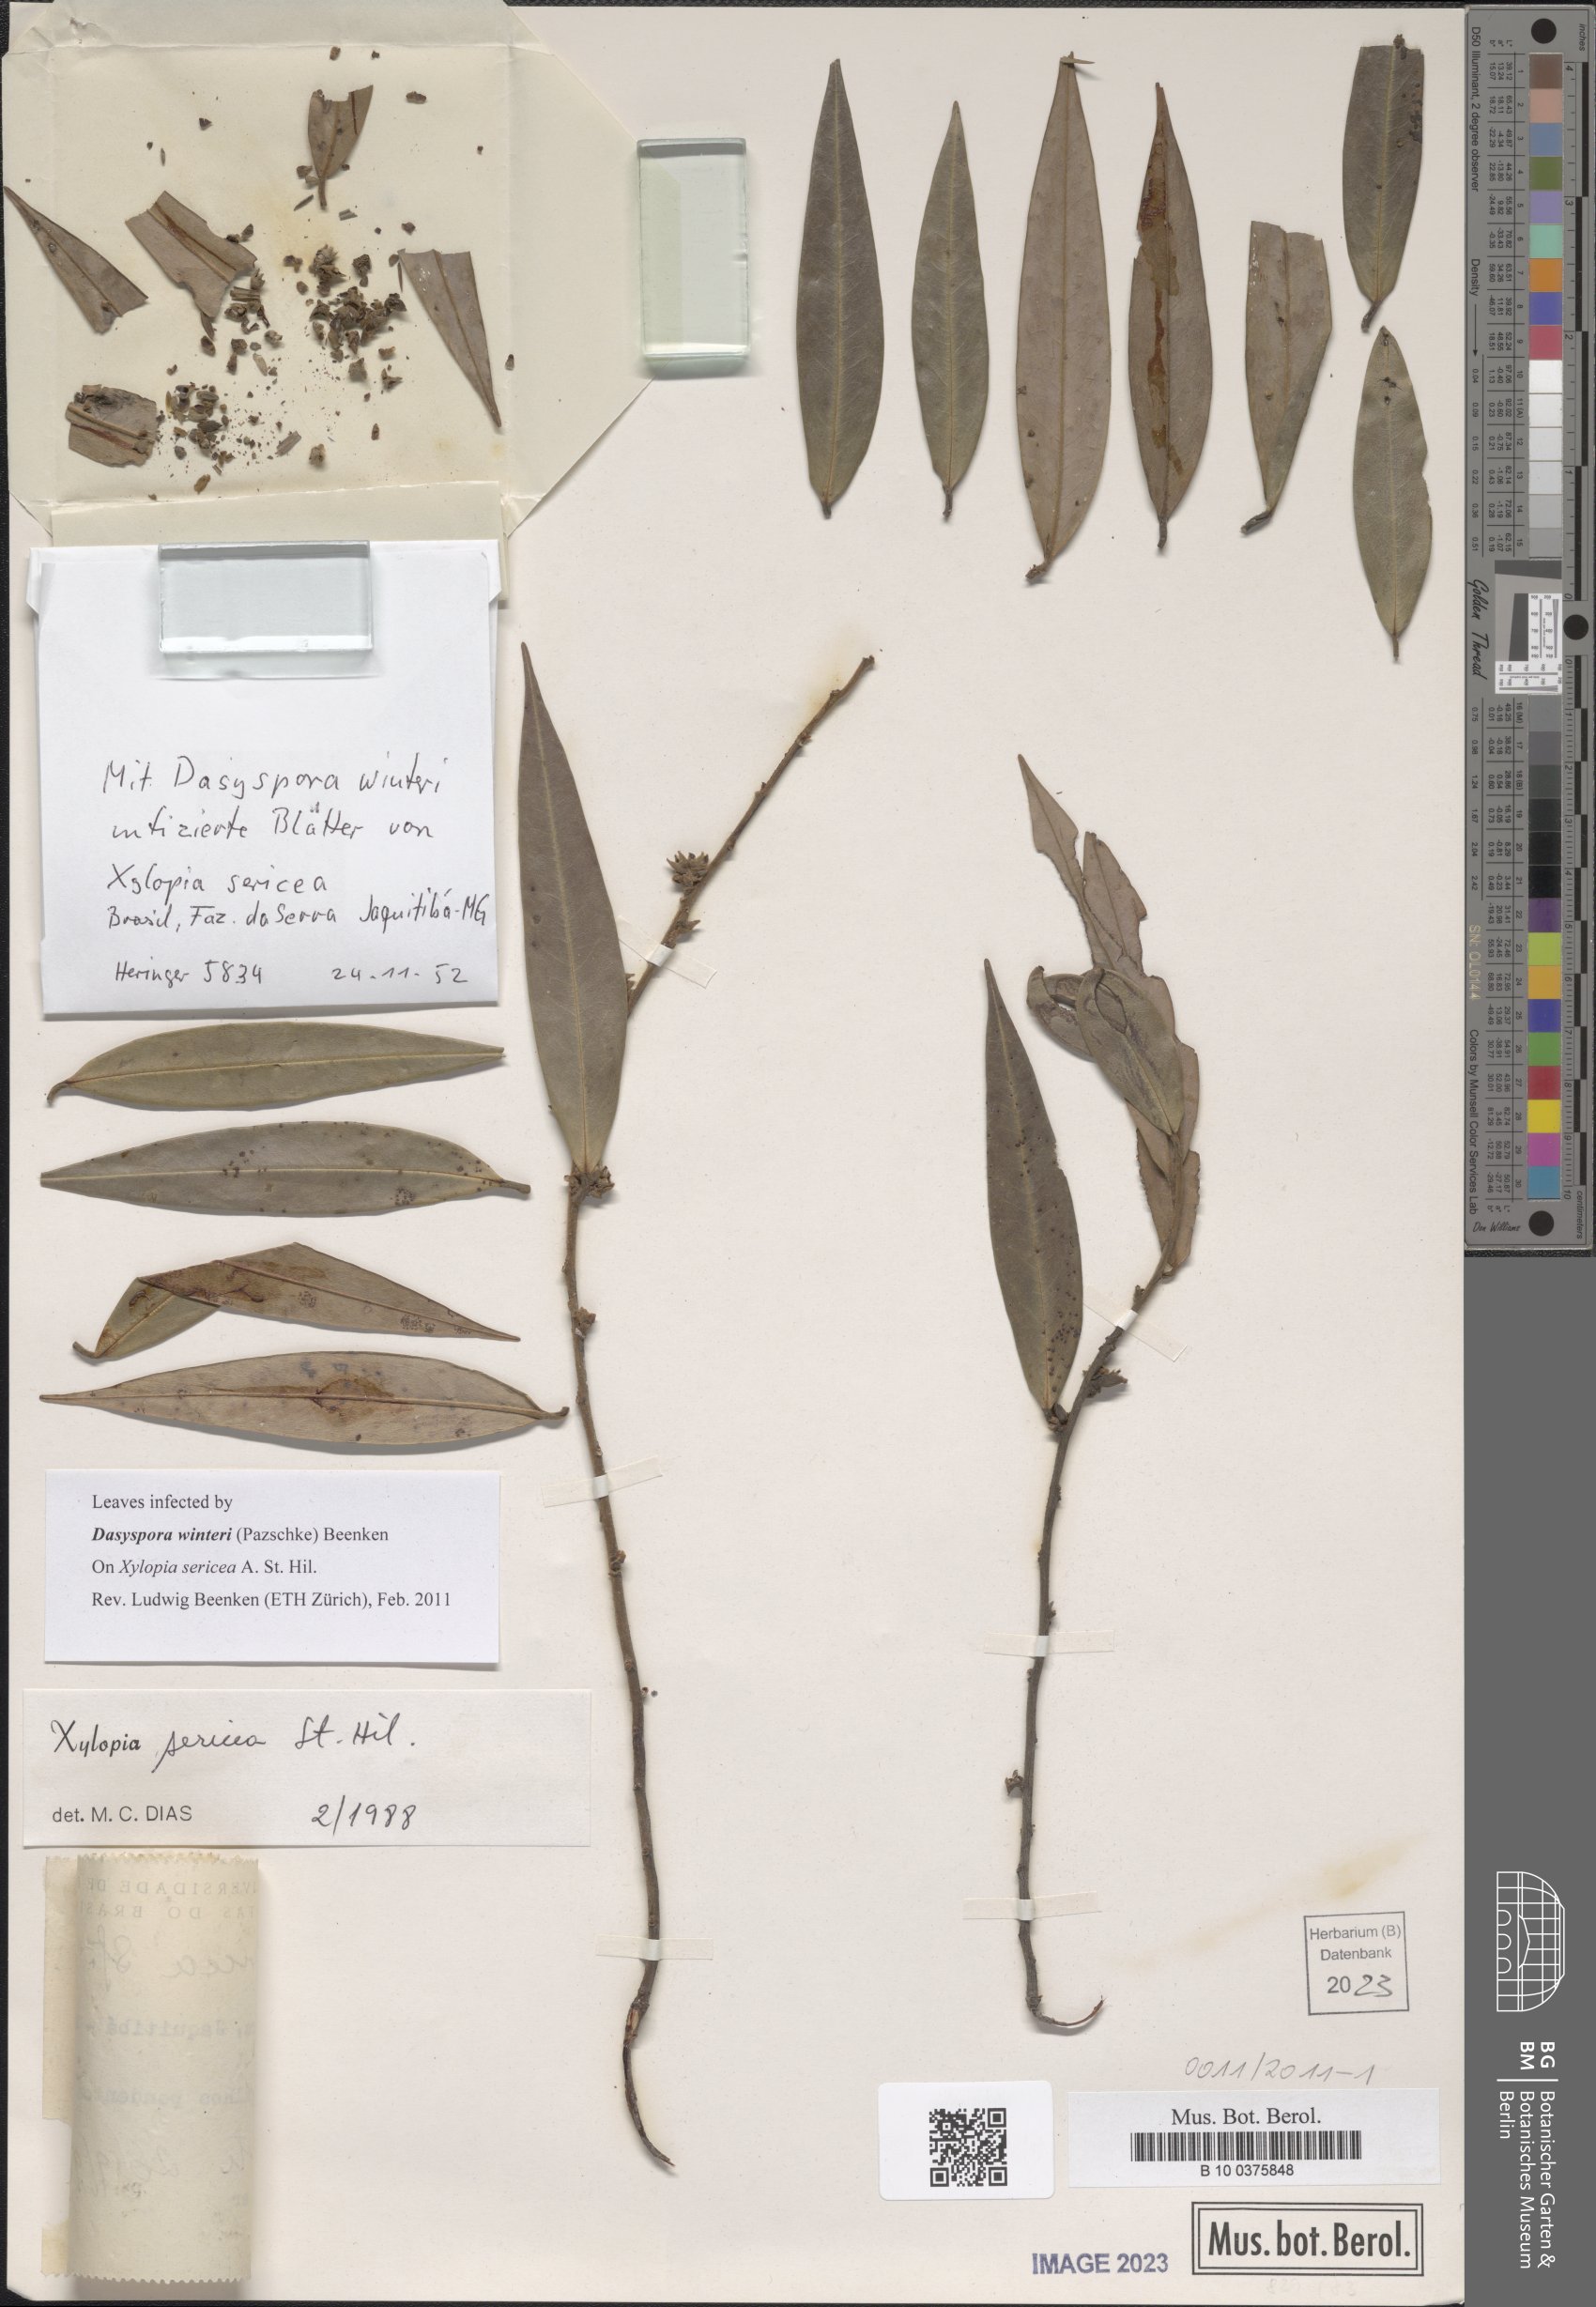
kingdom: Plantae
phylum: Tracheophyta
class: Magnoliopsida
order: Magnoliales
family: Annonaceae
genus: Xylopia
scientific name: Xylopia sericea
